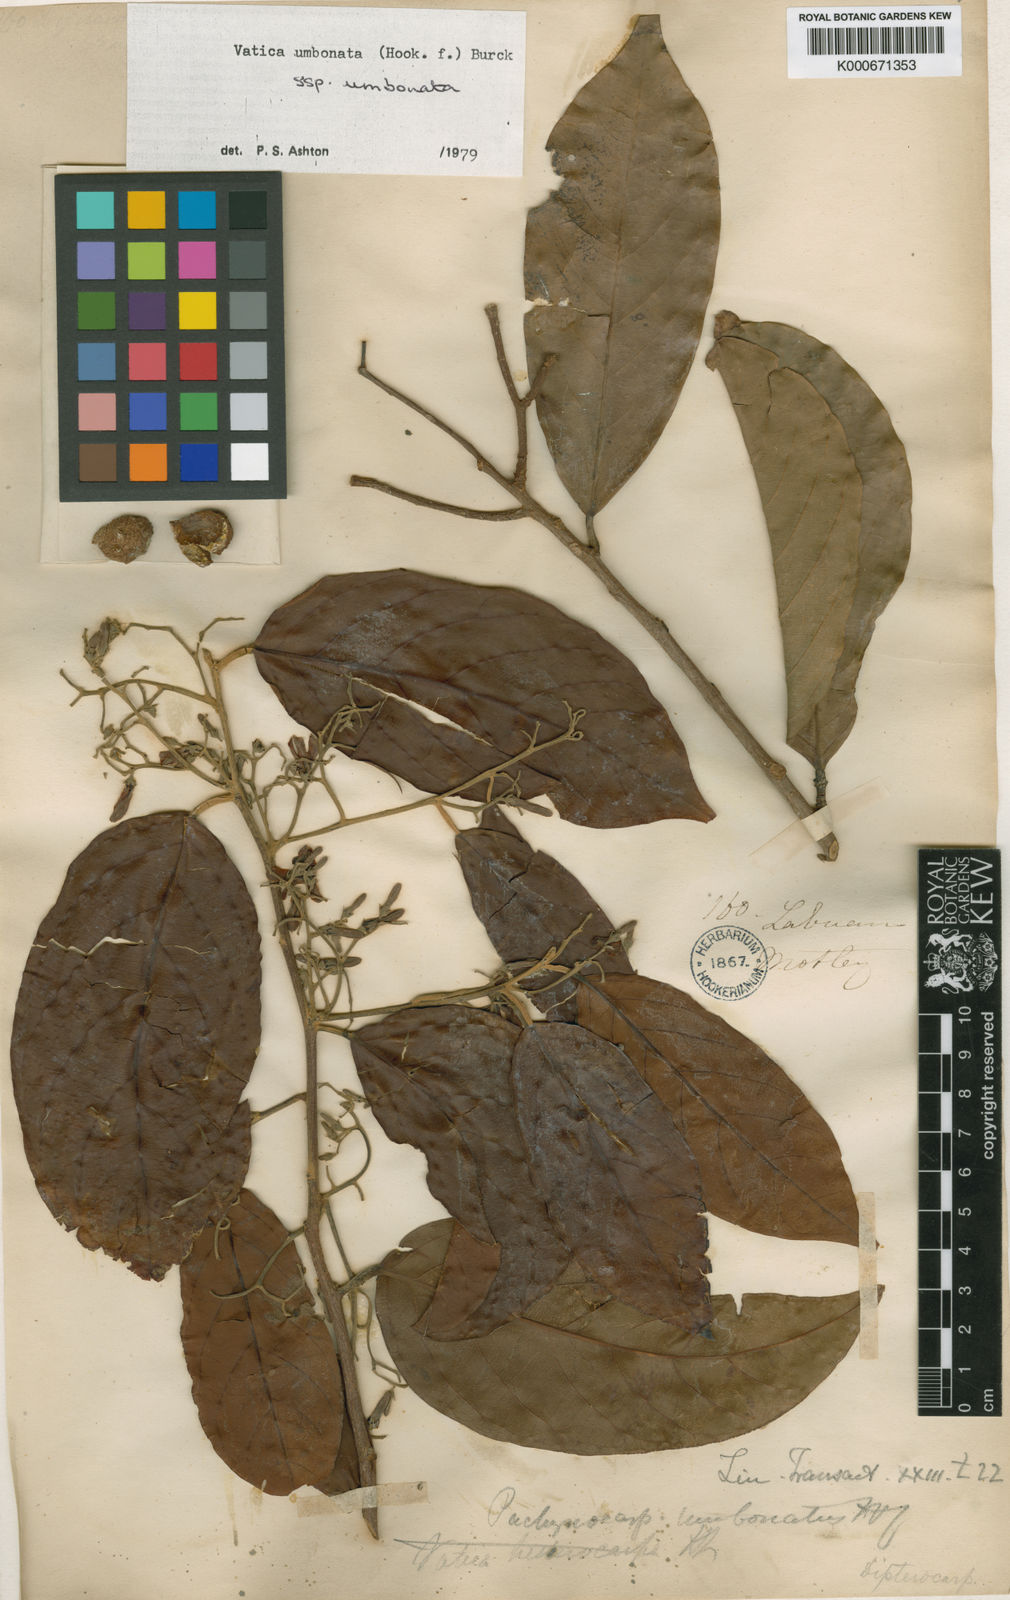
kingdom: Plantae
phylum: Tracheophyta
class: Magnoliopsida
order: Malvales
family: Dipterocarpaceae
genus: Vatica
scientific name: Vatica umbonata
